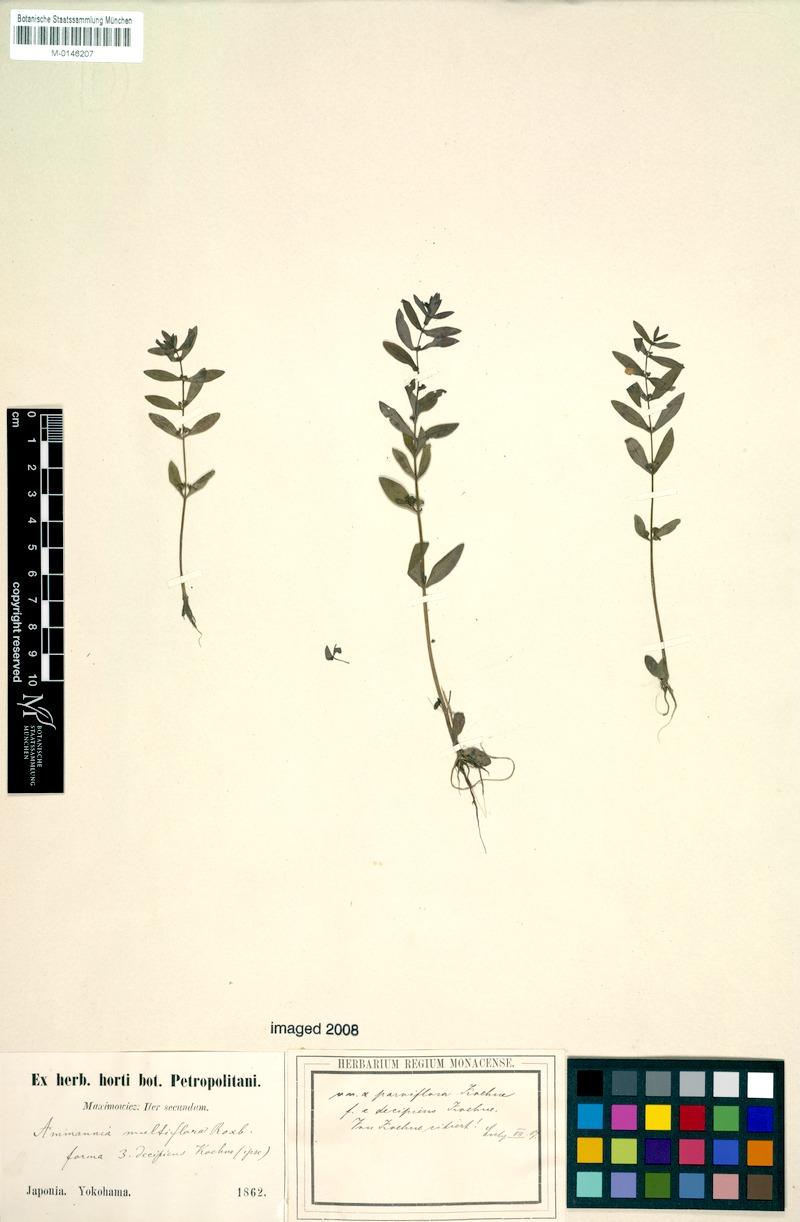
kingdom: Plantae
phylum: Tracheophyta
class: Magnoliopsida
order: Myrtales
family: Lythraceae
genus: Ammannia
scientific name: Ammannia auriculata
